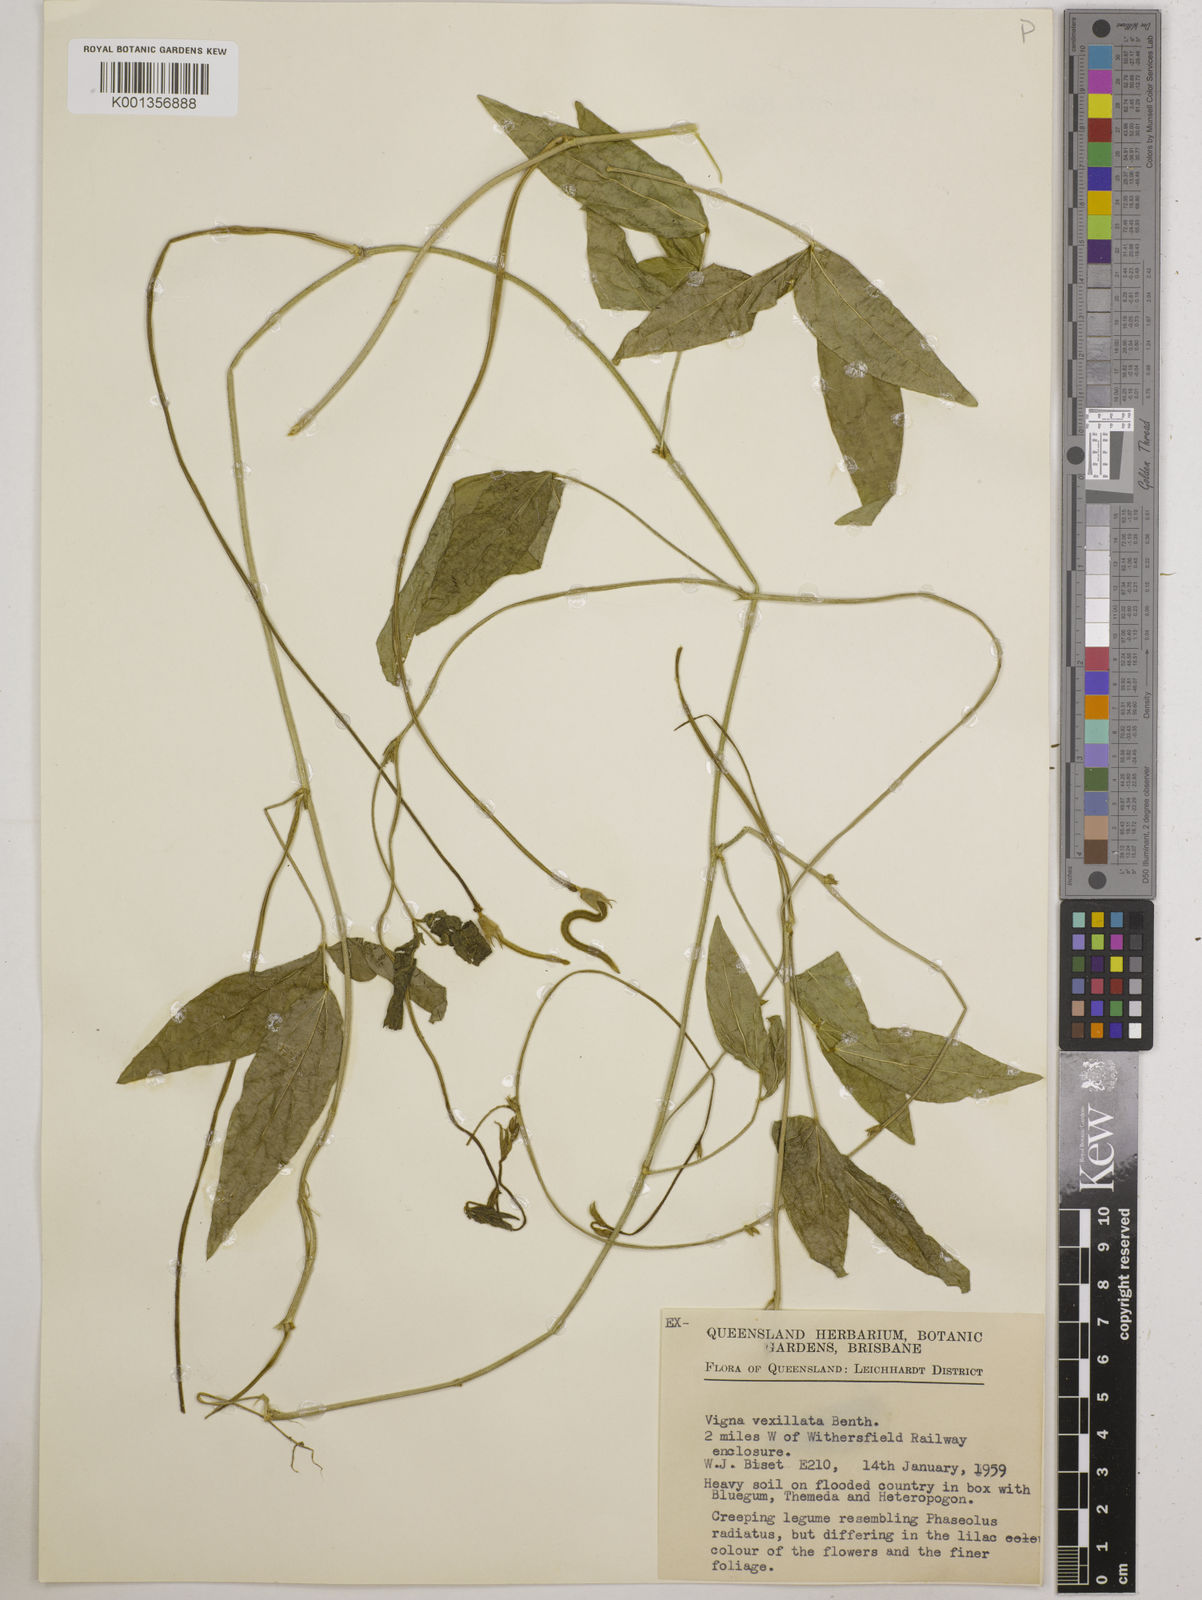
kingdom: Plantae
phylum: Tracheophyta
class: Magnoliopsida
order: Fabales
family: Fabaceae
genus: Vigna
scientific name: Vigna vexillata
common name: Zombi pea
